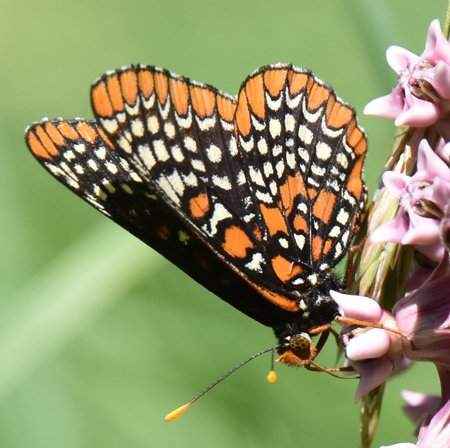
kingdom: Animalia
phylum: Arthropoda
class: Insecta
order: Lepidoptera
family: Nymphalidae
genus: Euphydryas
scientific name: Euphydryas phaeton
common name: Baltimore Checkerspot
